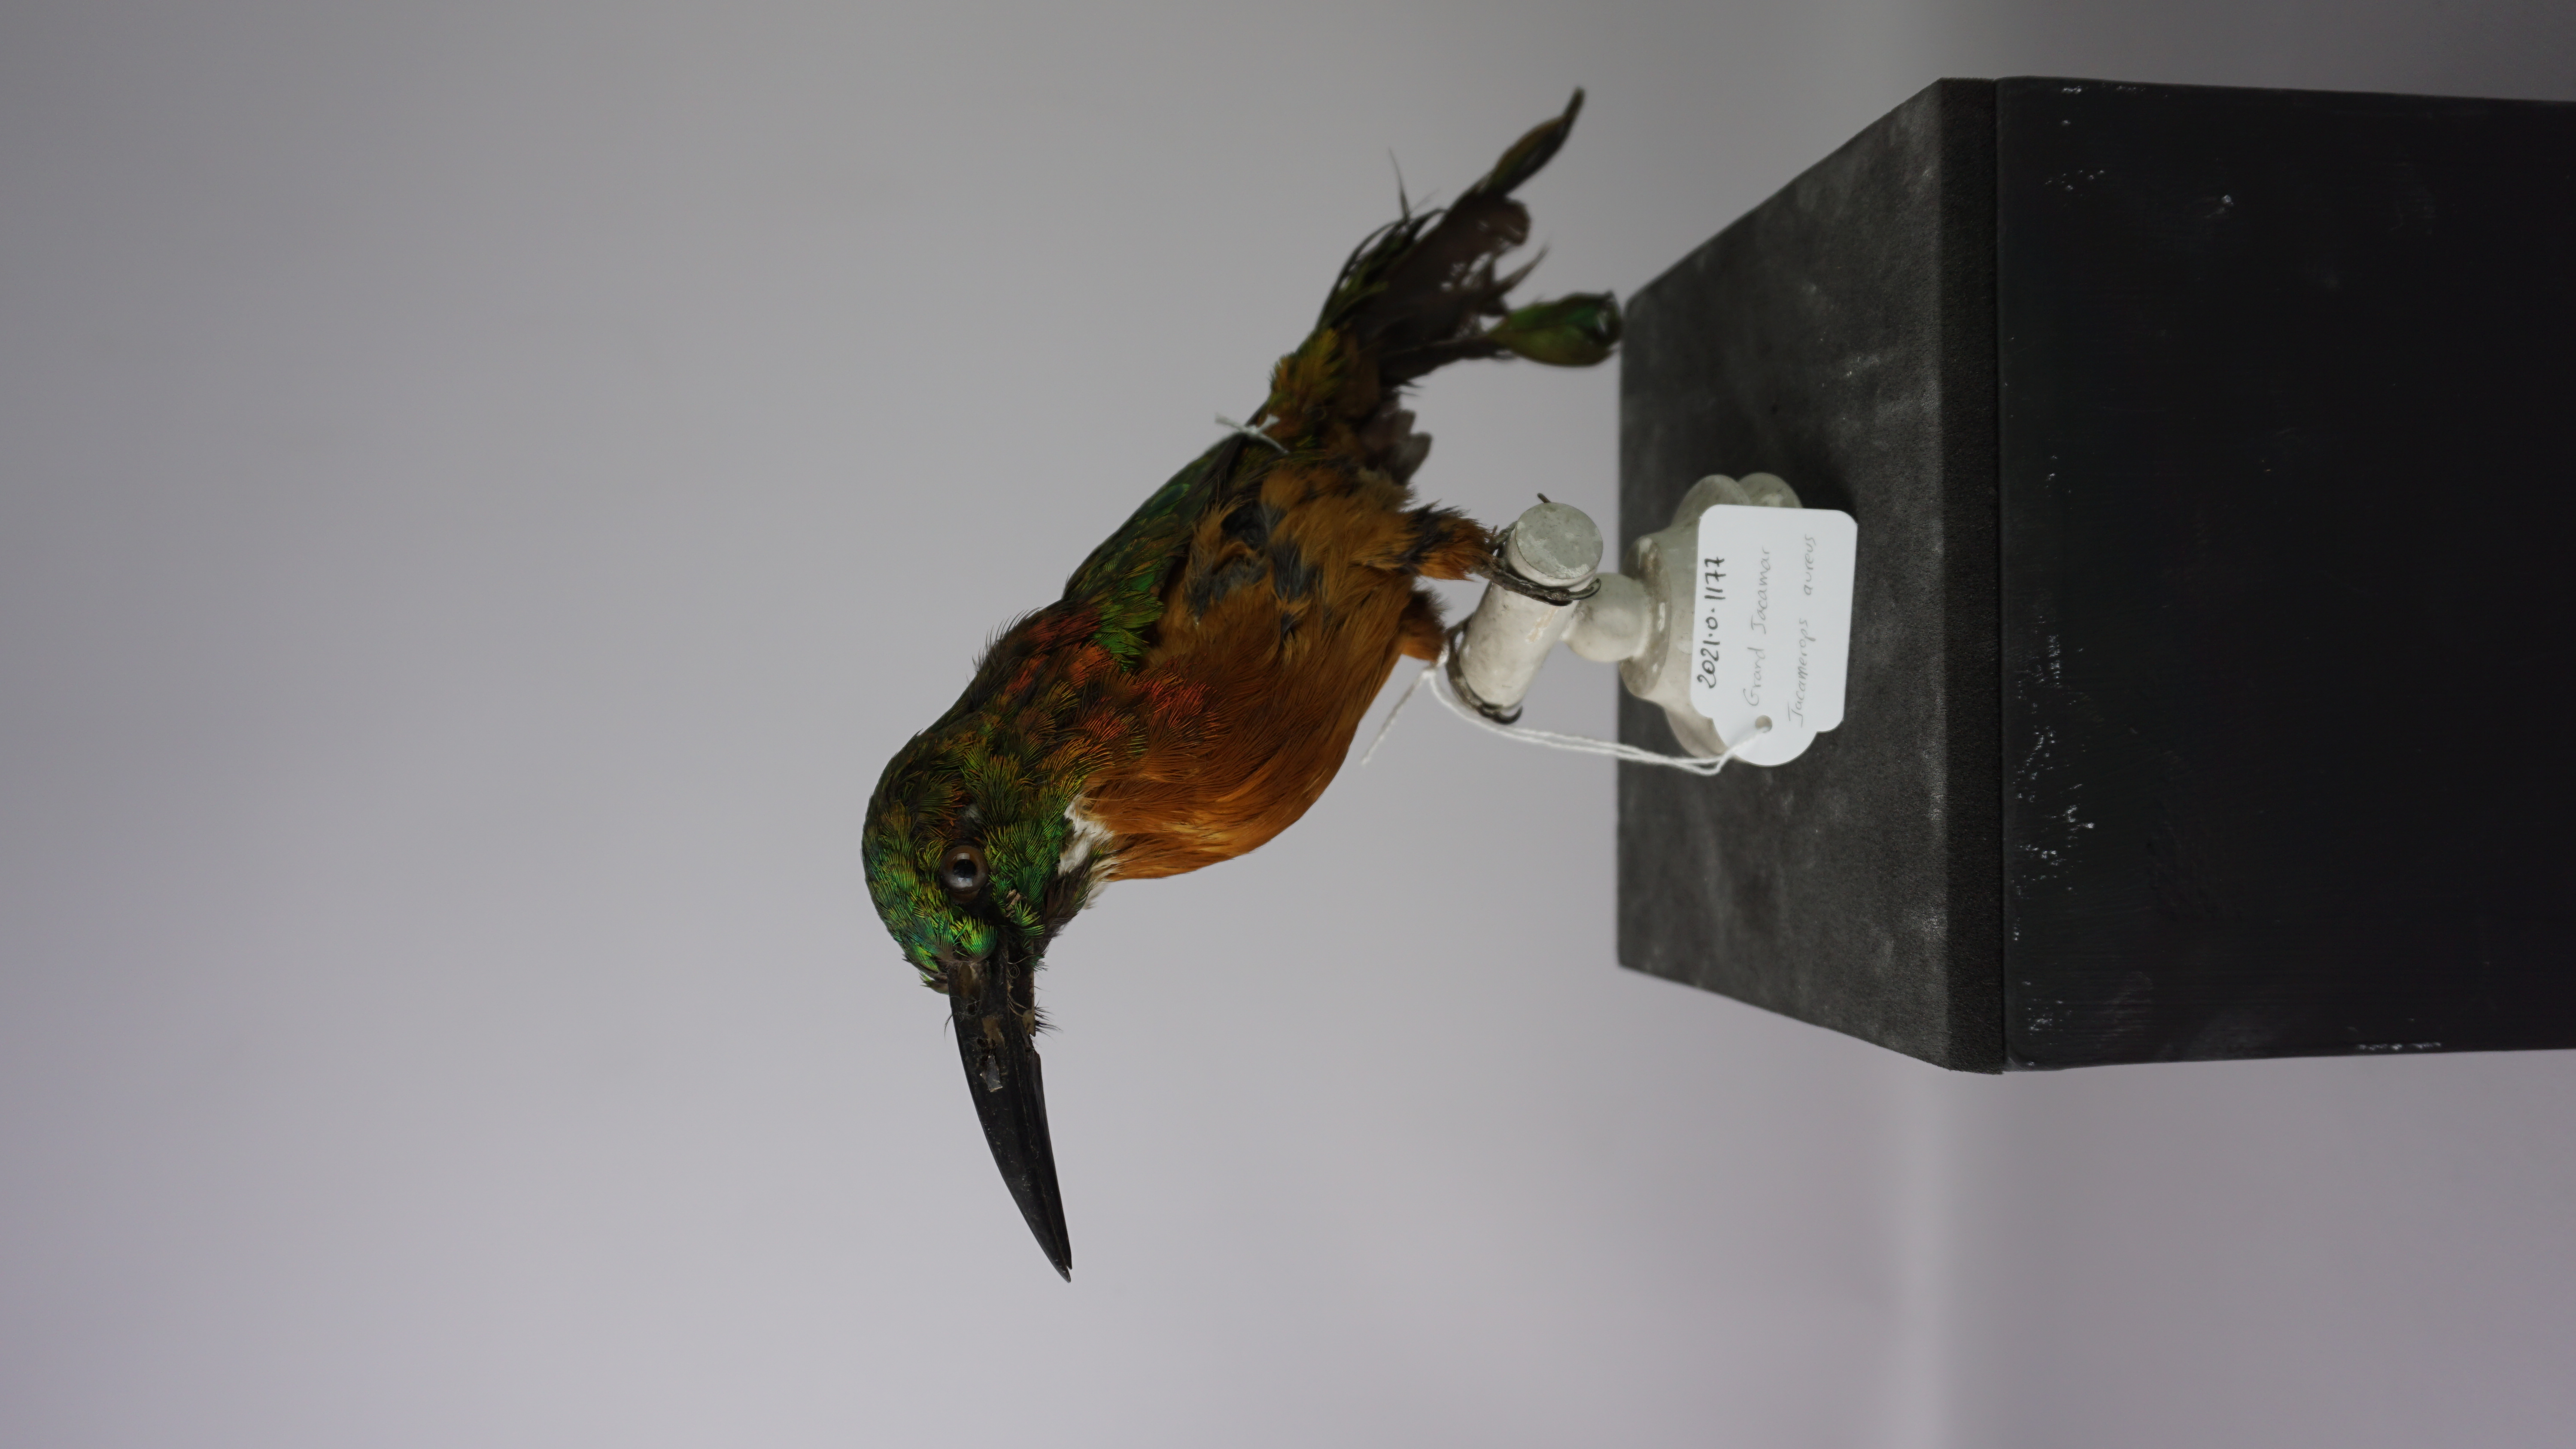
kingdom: Animalia
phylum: Chordata
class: Aves
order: Piciformes
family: Galbulidae
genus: Jacamerops
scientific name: Jacamerops aureus
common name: Great jacamar
